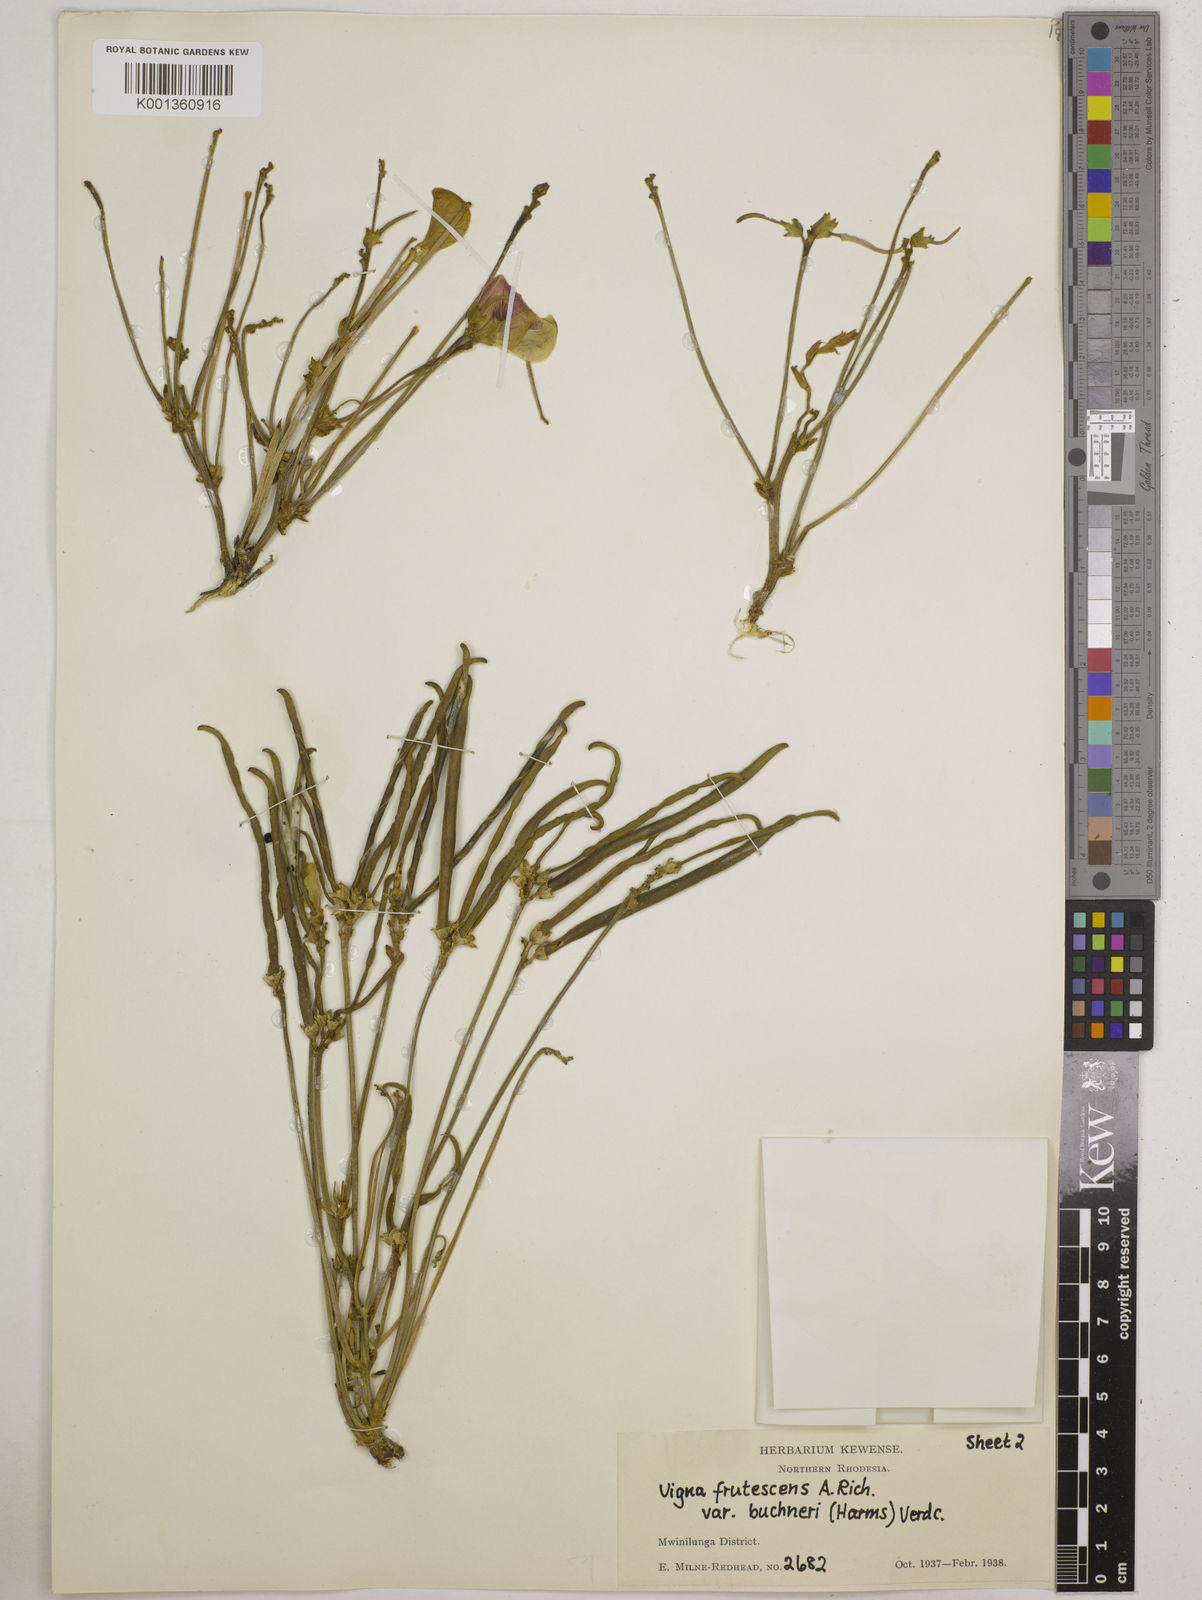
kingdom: Plantae
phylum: Tracheophyta
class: Magnoliopsida
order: Fabales
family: Fabaceae
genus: Vigna
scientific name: Vigna frutescens
